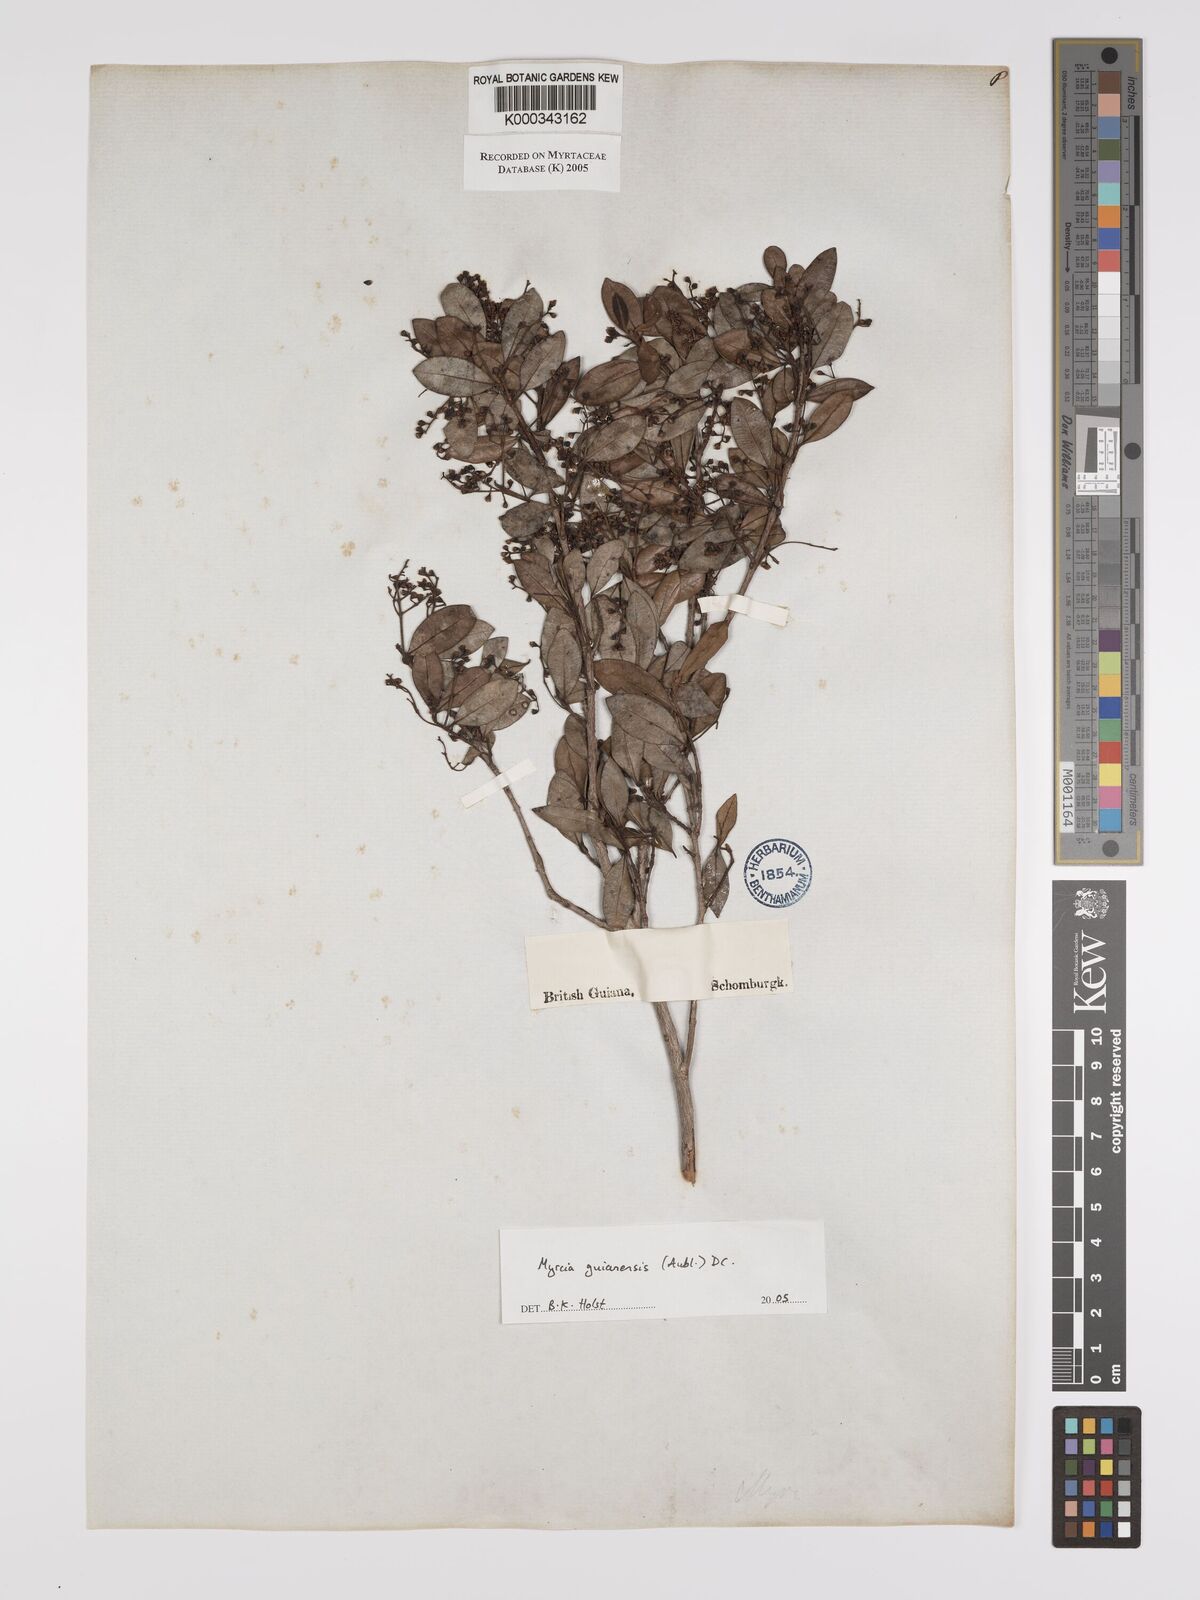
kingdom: Plantae
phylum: Tracheophyta
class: Magnoliopsida
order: Myrtales
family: Myrtaceae
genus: Myrcia
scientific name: Myrcia guianensis
